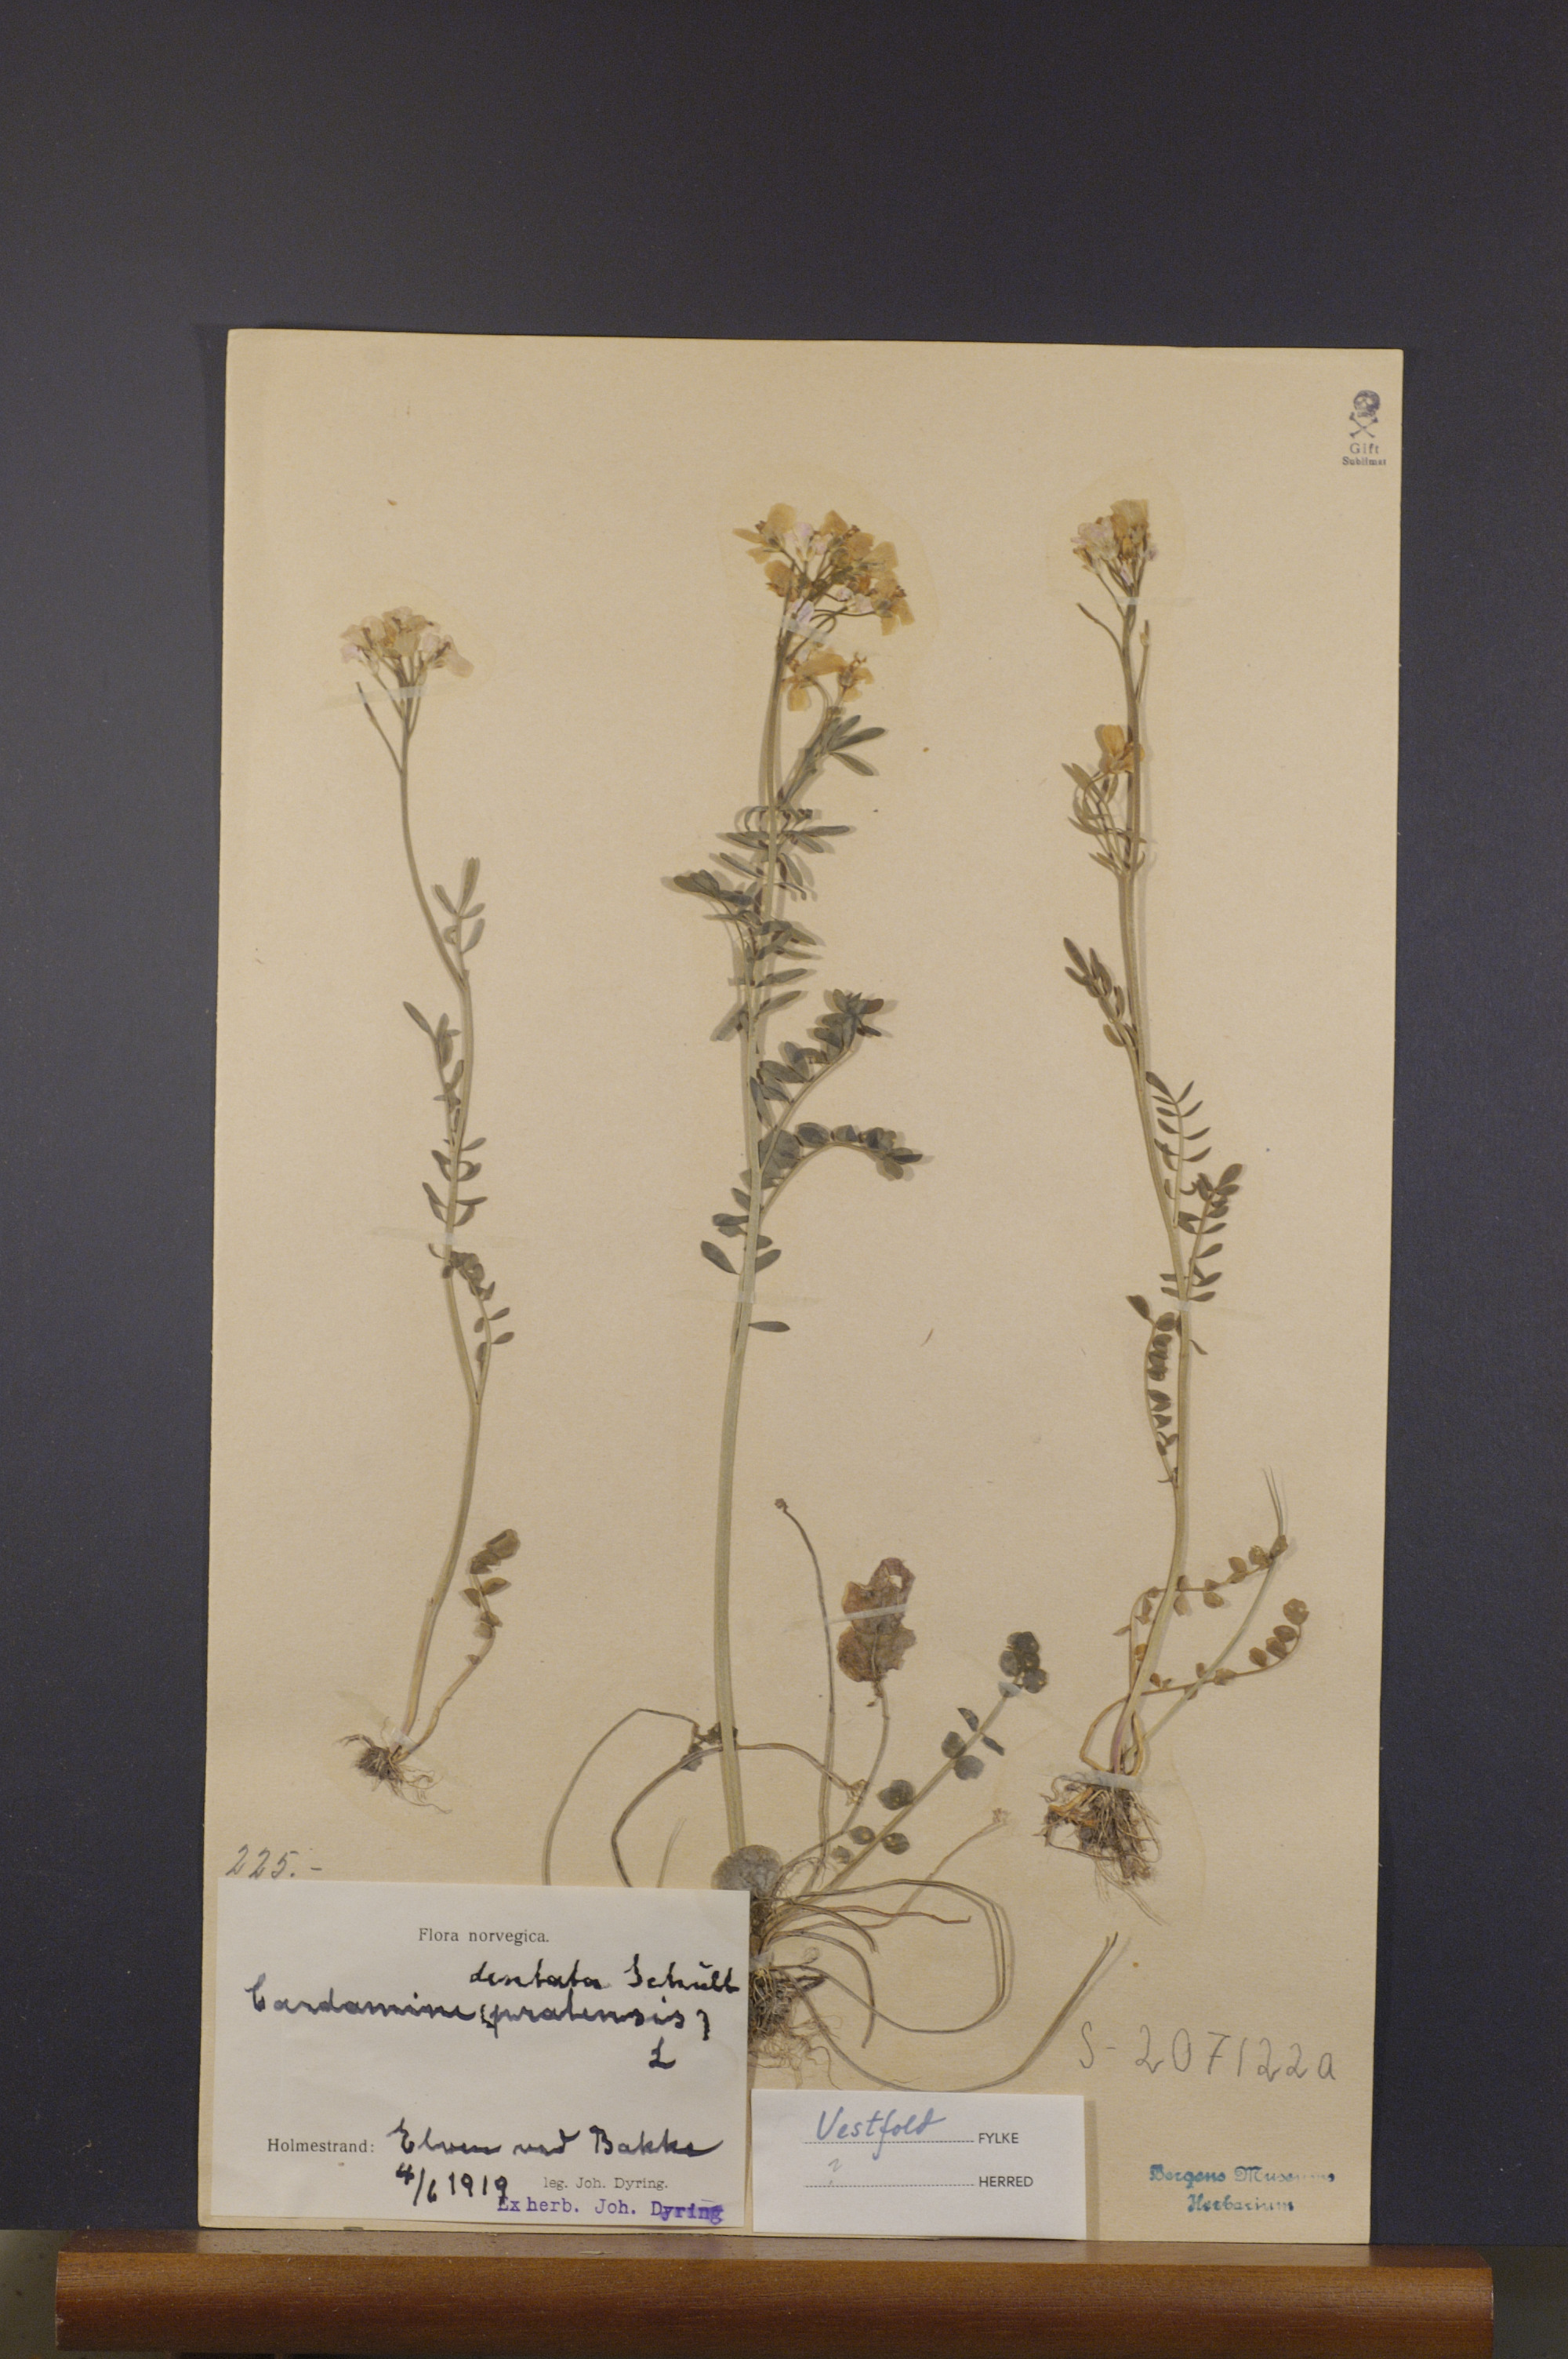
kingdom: Plantae
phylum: Tracheophyta
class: Magnoliopsida
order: Brassicales
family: Brassicaceae
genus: Cardamine
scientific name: Cardamine dentata
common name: Toothed bittercress
